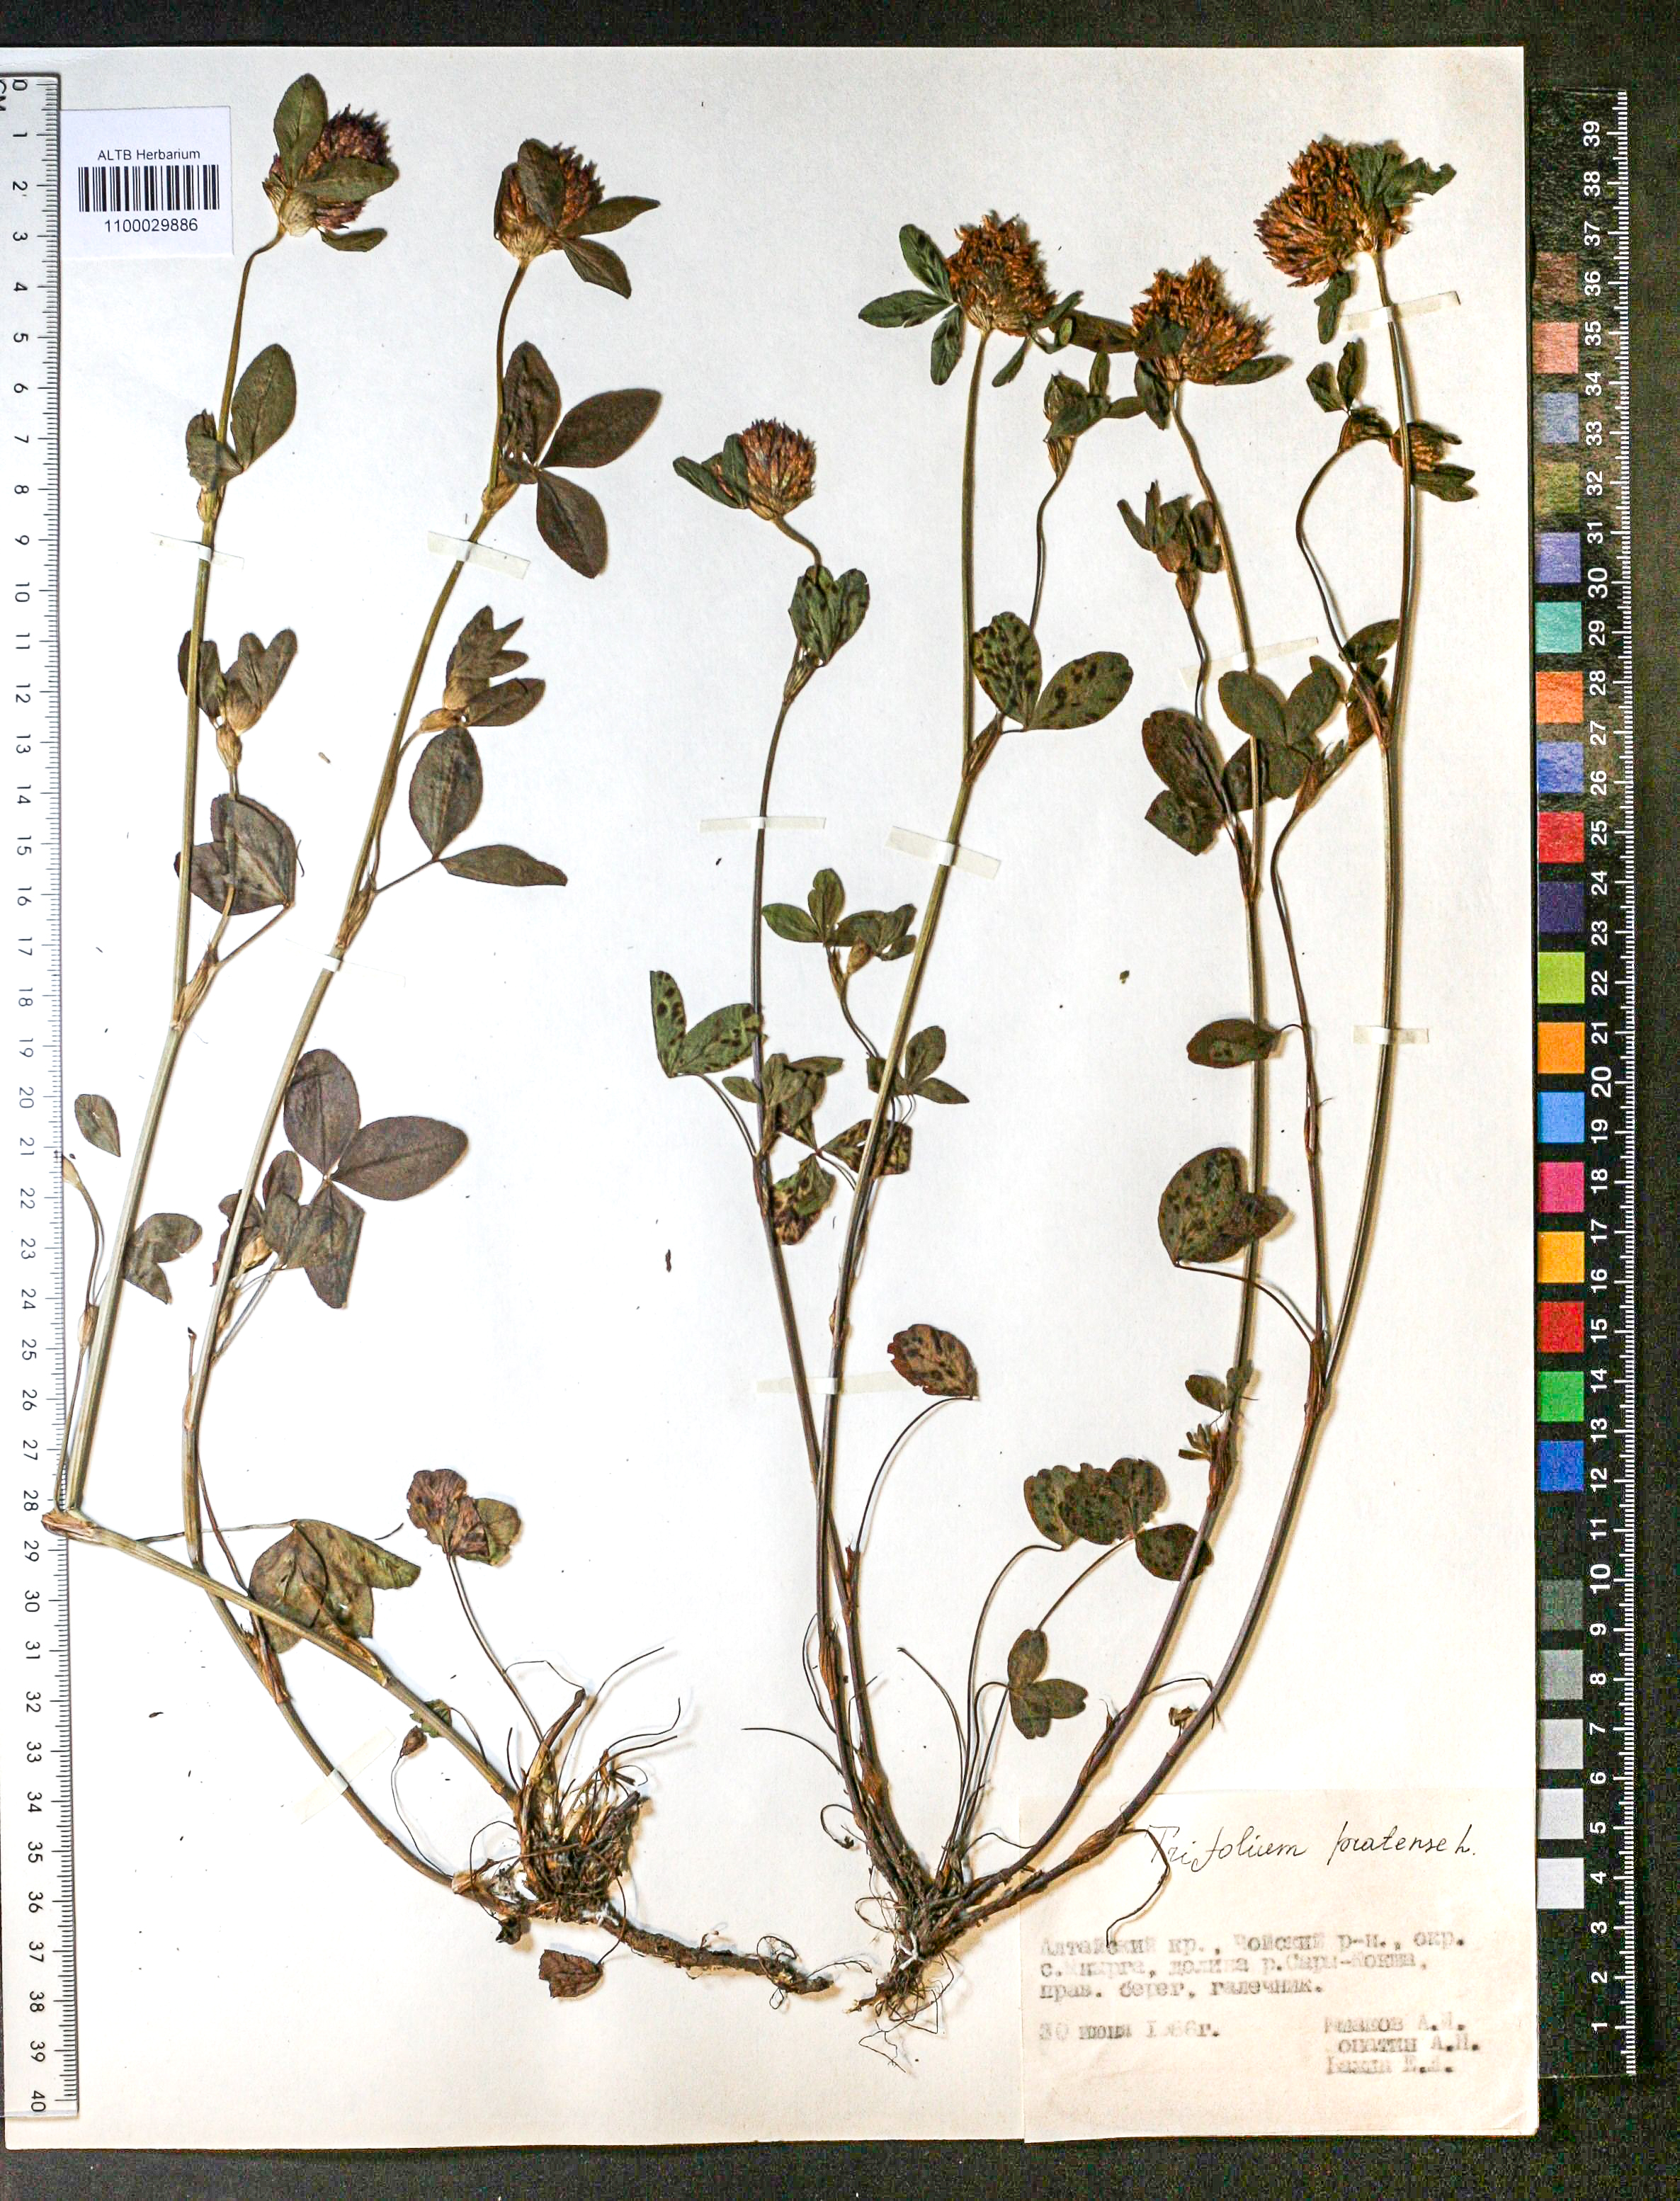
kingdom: Plantae
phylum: Tracheophyta
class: Magnoliopsida
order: Fabales
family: Fabaceae
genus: Trifolium
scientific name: Trifolium pratense
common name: Red clover
